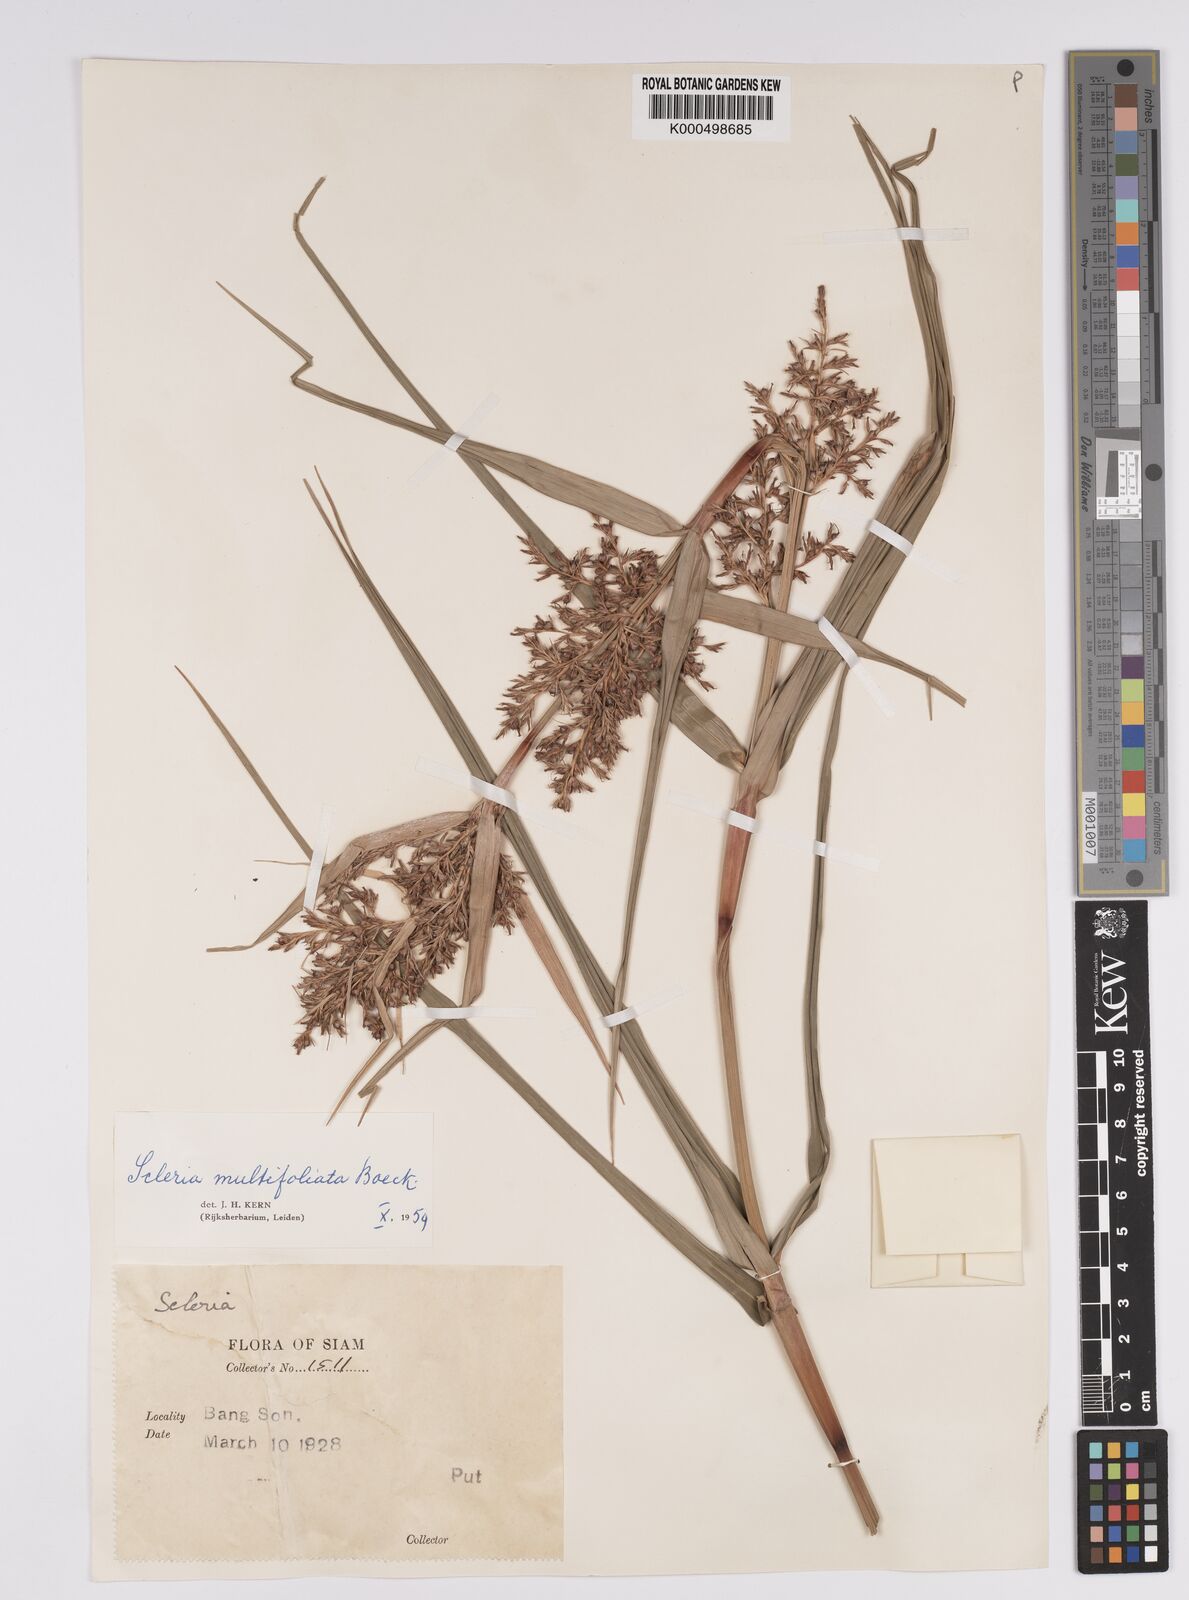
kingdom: Plantae
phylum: Tracheophyta
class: Liliopsida
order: Poales
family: Cyperaceae
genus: Scleria
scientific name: Scleria purpurascens
